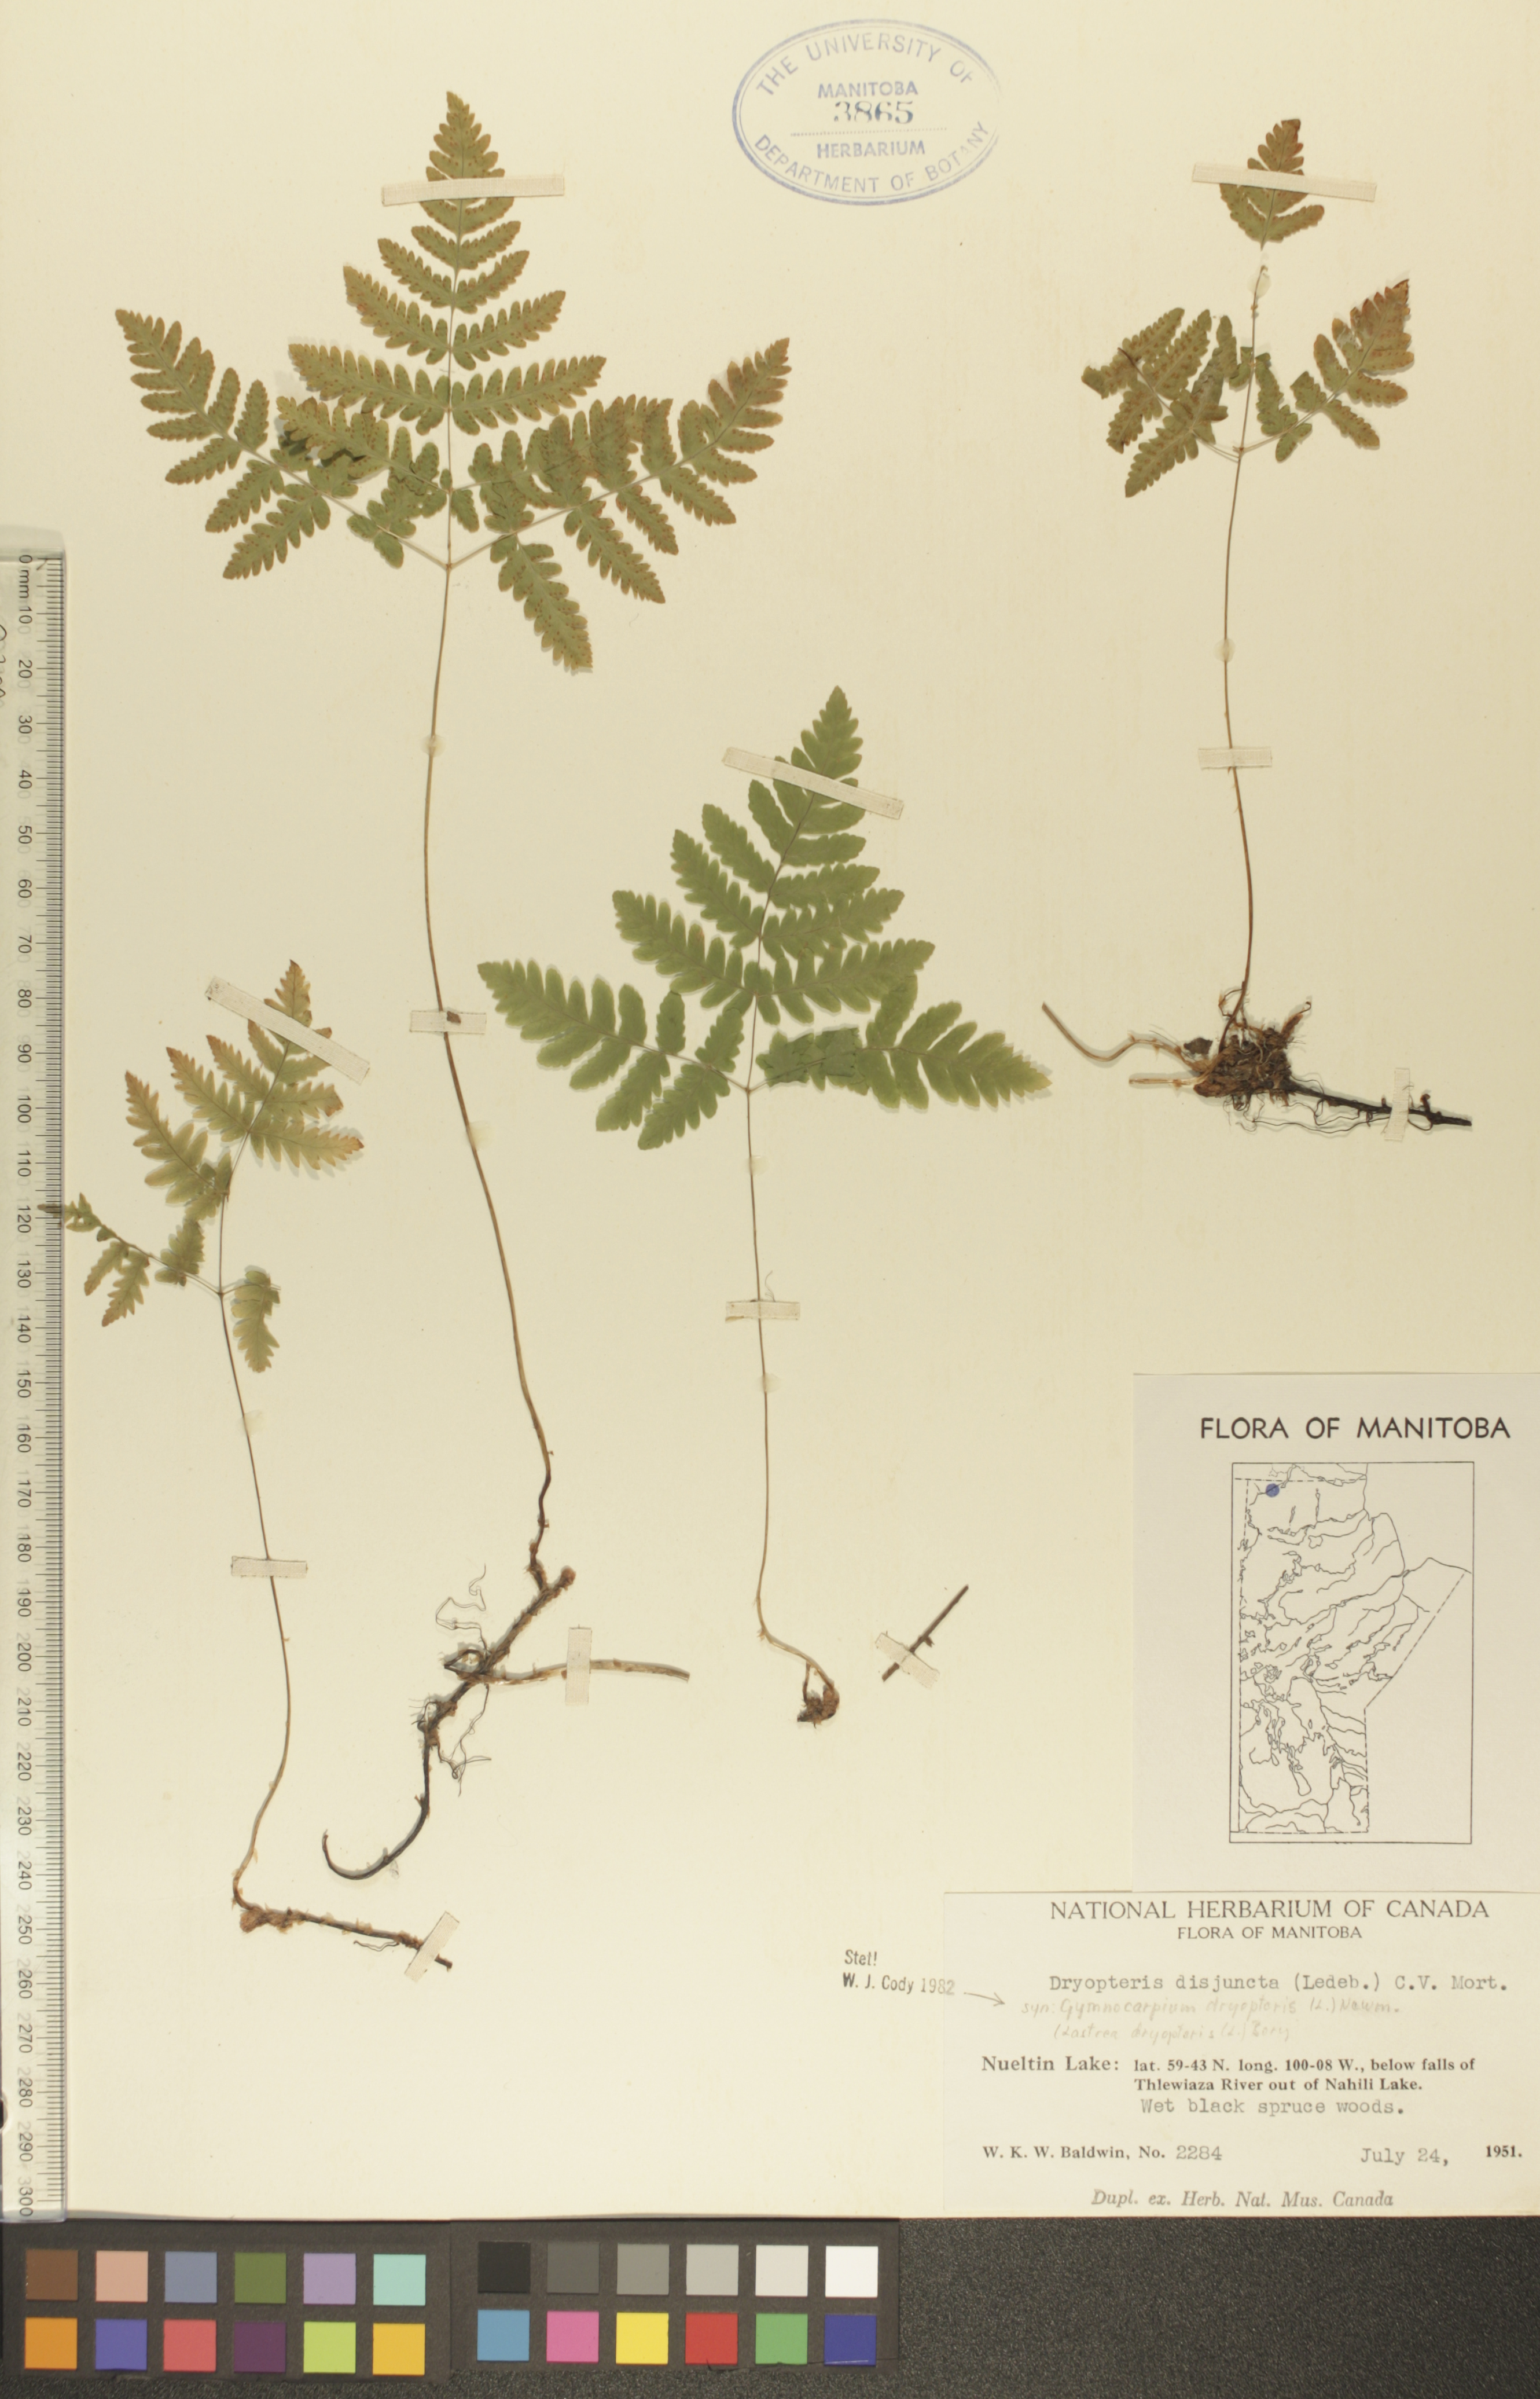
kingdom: Plantae
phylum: Tracheophyta
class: Polypodiopsida
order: Polypodiales
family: Cystopteridaceae
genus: Gymnocarpium
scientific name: Gymnocarpium dryopteris
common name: Oak fern
